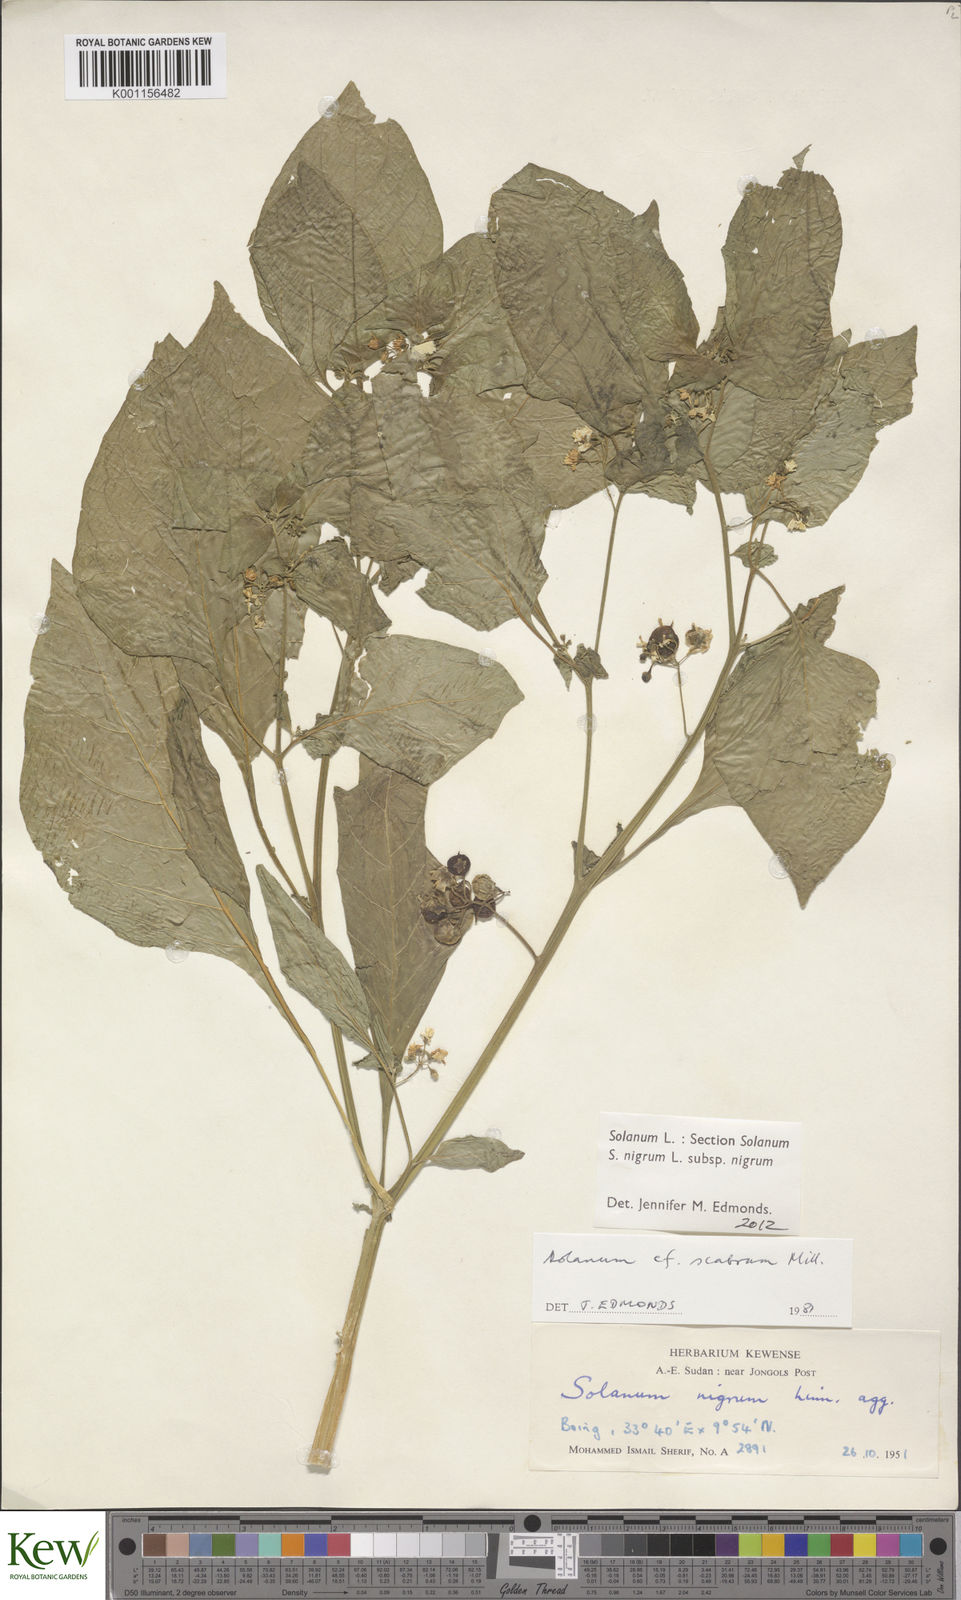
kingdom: Plantae
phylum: Tracheophyta
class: Magnoliopsida
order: Solanales
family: Solanaceae
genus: Solanum
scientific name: Solanum tarderemotum
